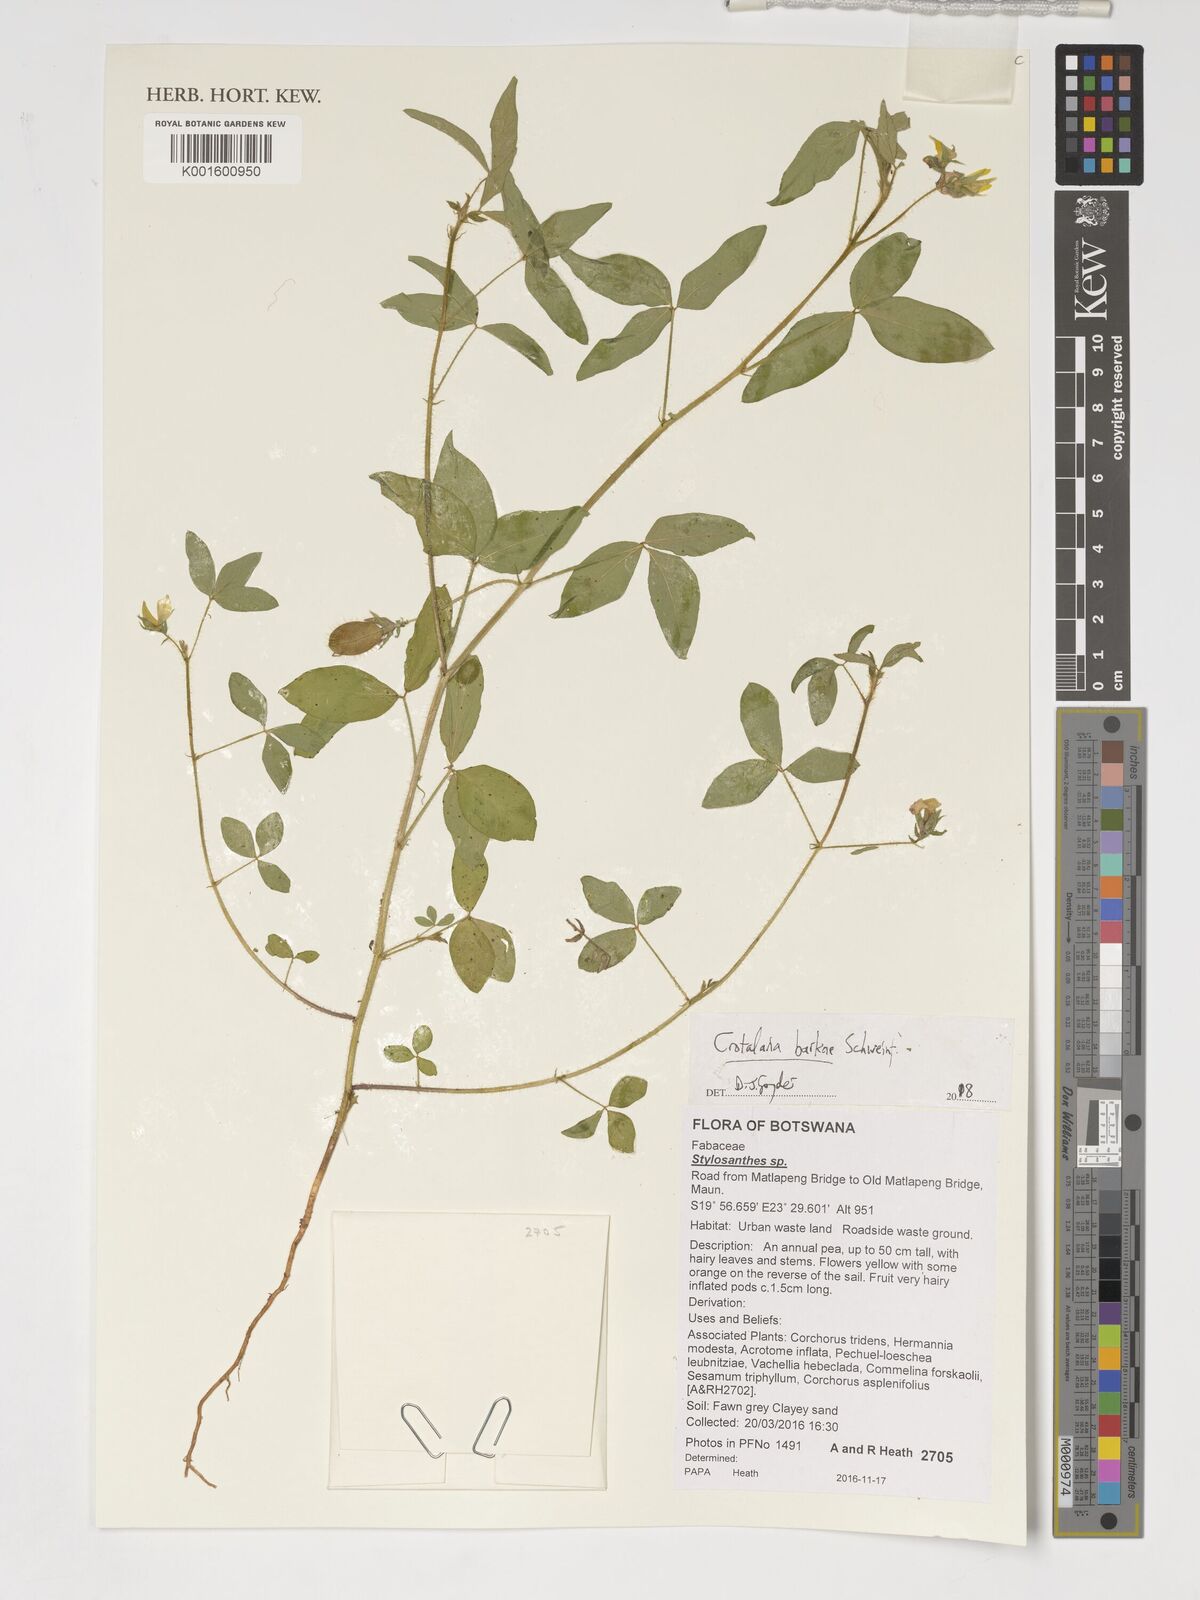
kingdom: Plantae
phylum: Tracheophyta
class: Magnoliopsida
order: Fabales
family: Fabaceae
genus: Crotalaria
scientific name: Crotalaria barkae
